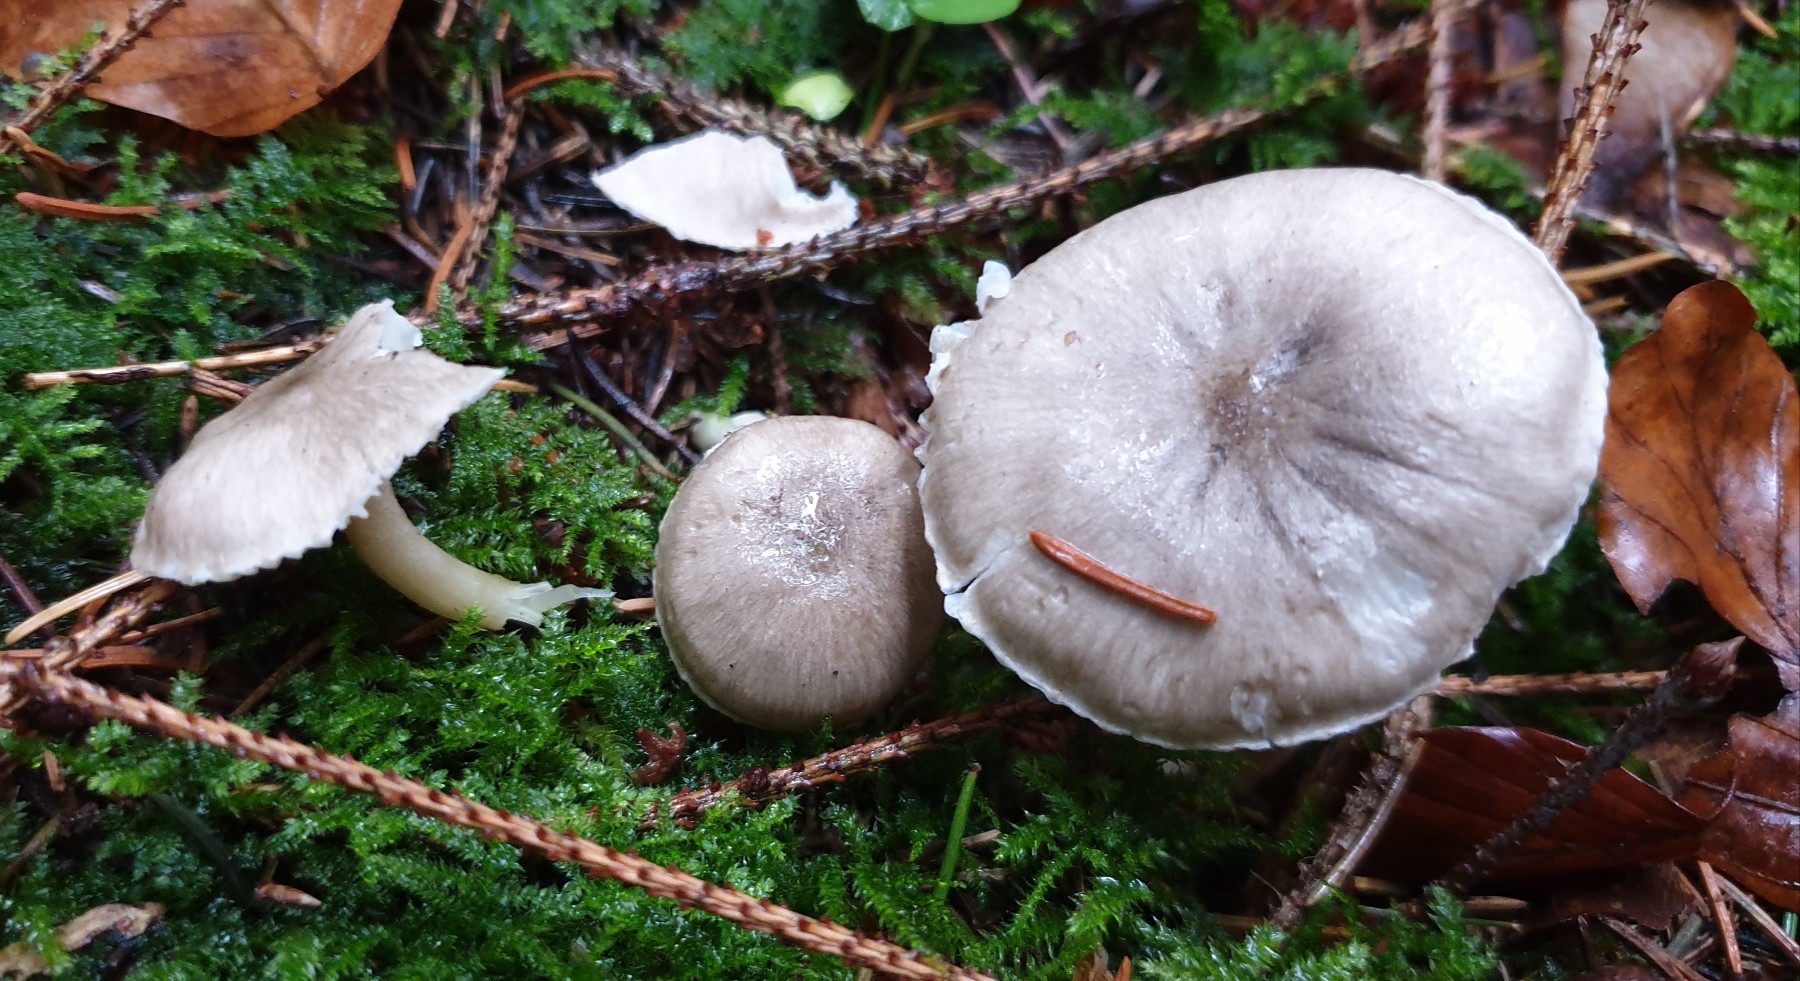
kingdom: Fungi
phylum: Basidiomycota
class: Agaricomycetes
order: Agaricales
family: Hygrophoraceae
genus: Hygrophorus
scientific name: Hygrophorus pustulatus
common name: mørkprikket sneglehat
